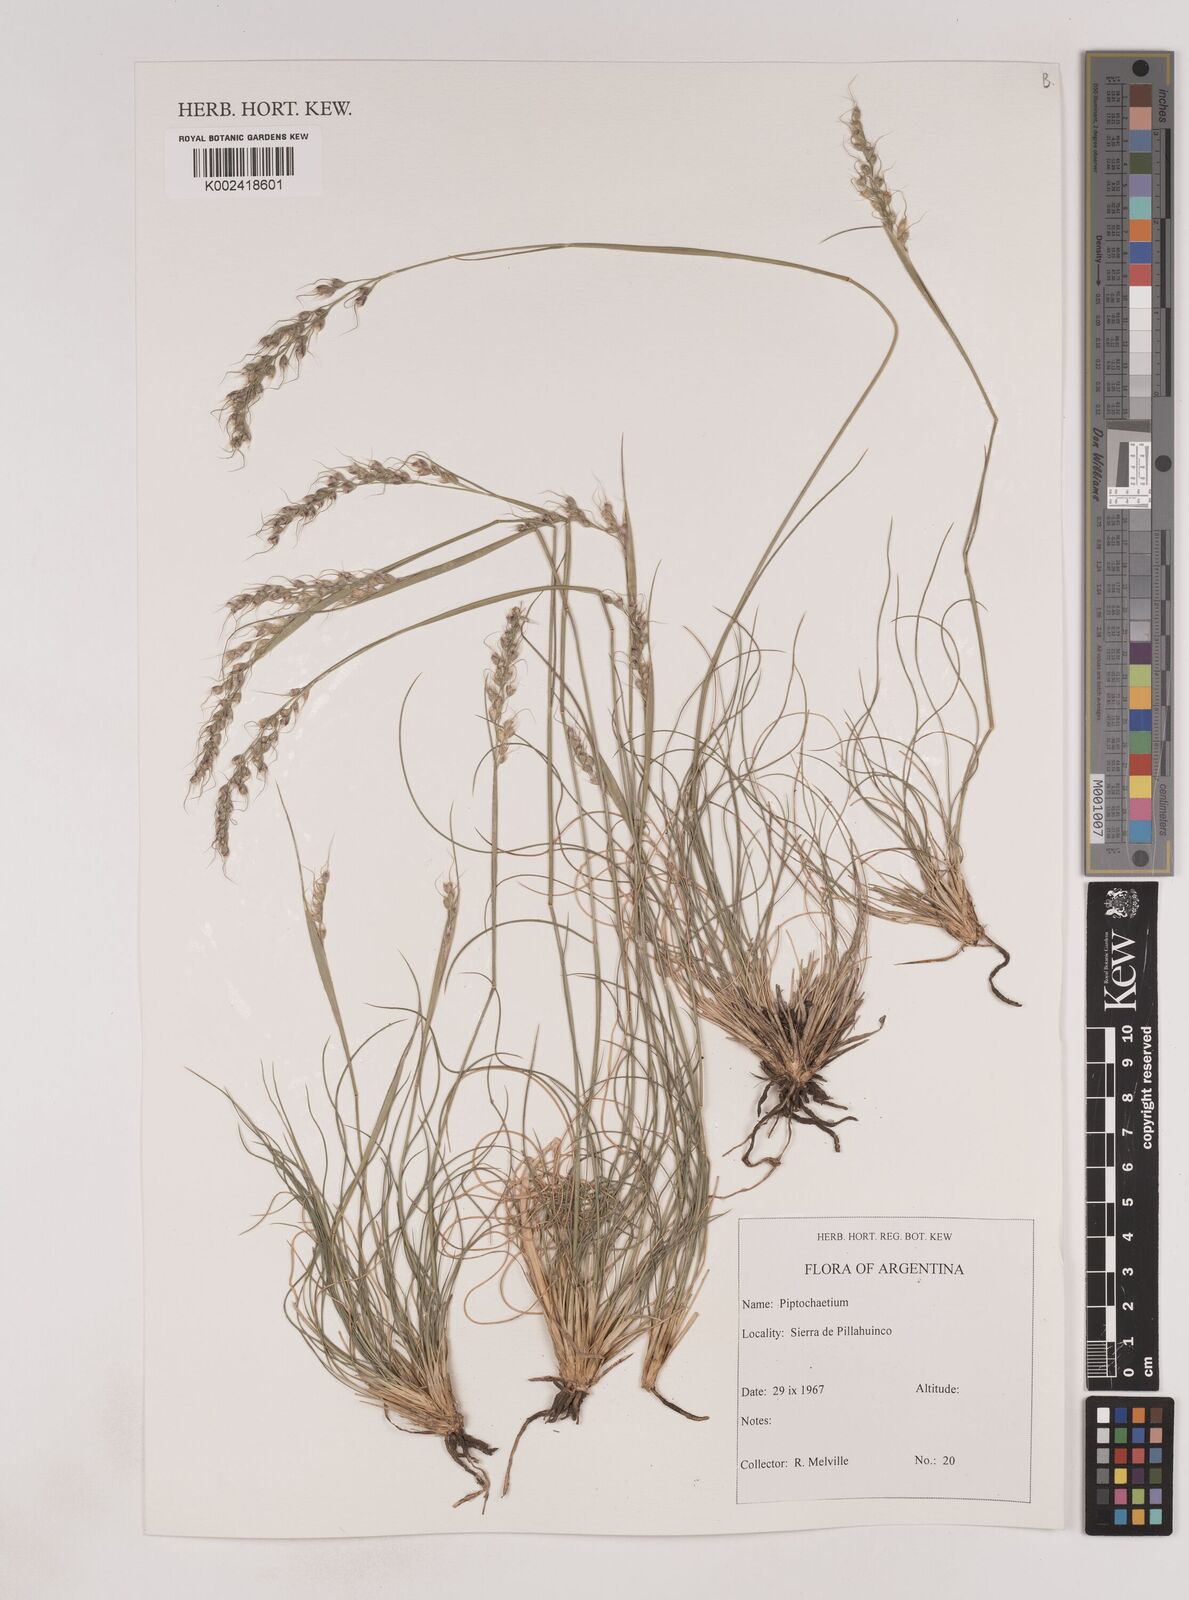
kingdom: Plantae
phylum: Tracheophyta
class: Liliopsida
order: Poales
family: Poaceae
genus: Piptochaetium
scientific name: Piptochaetium
